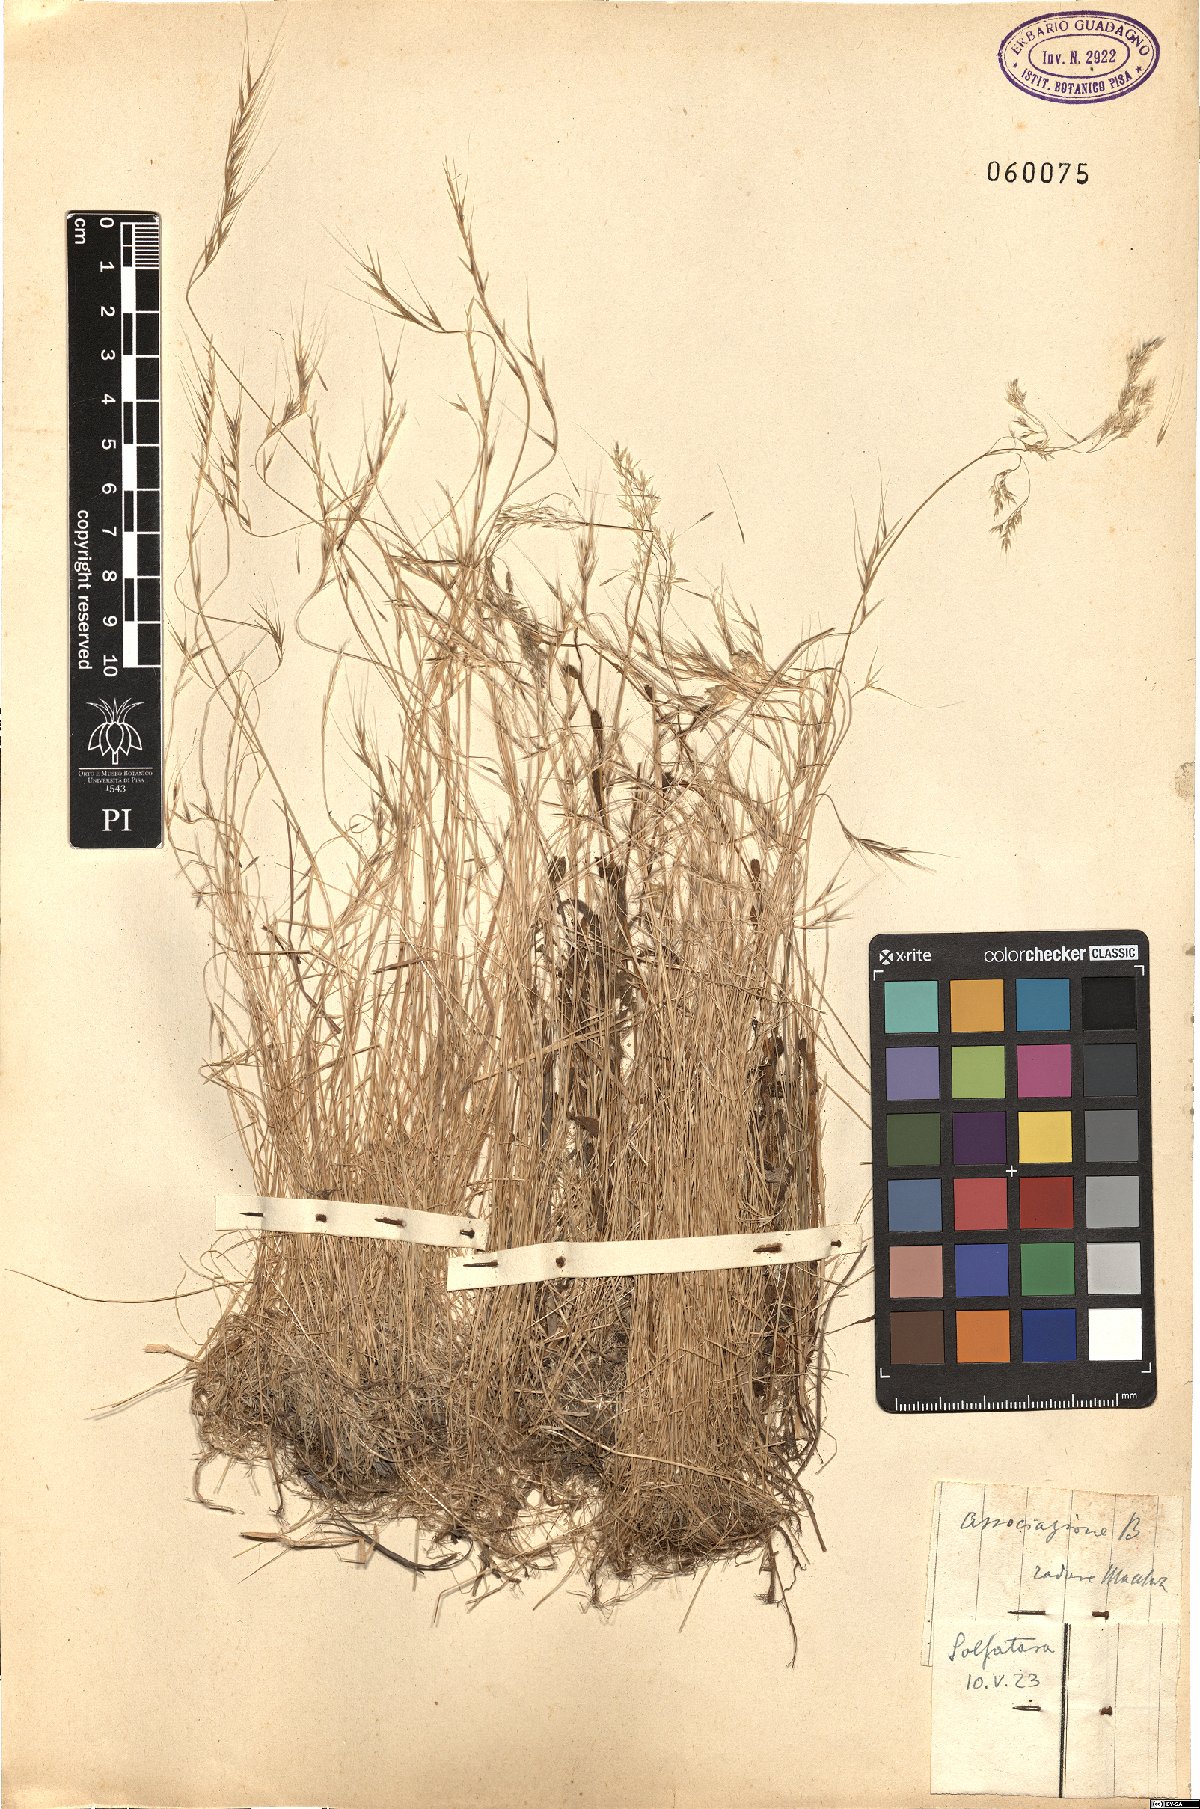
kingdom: Plantae
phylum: Tracheophyta
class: Liliopsida
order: Poales
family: Poaceae
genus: Festuca
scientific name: Festuca
